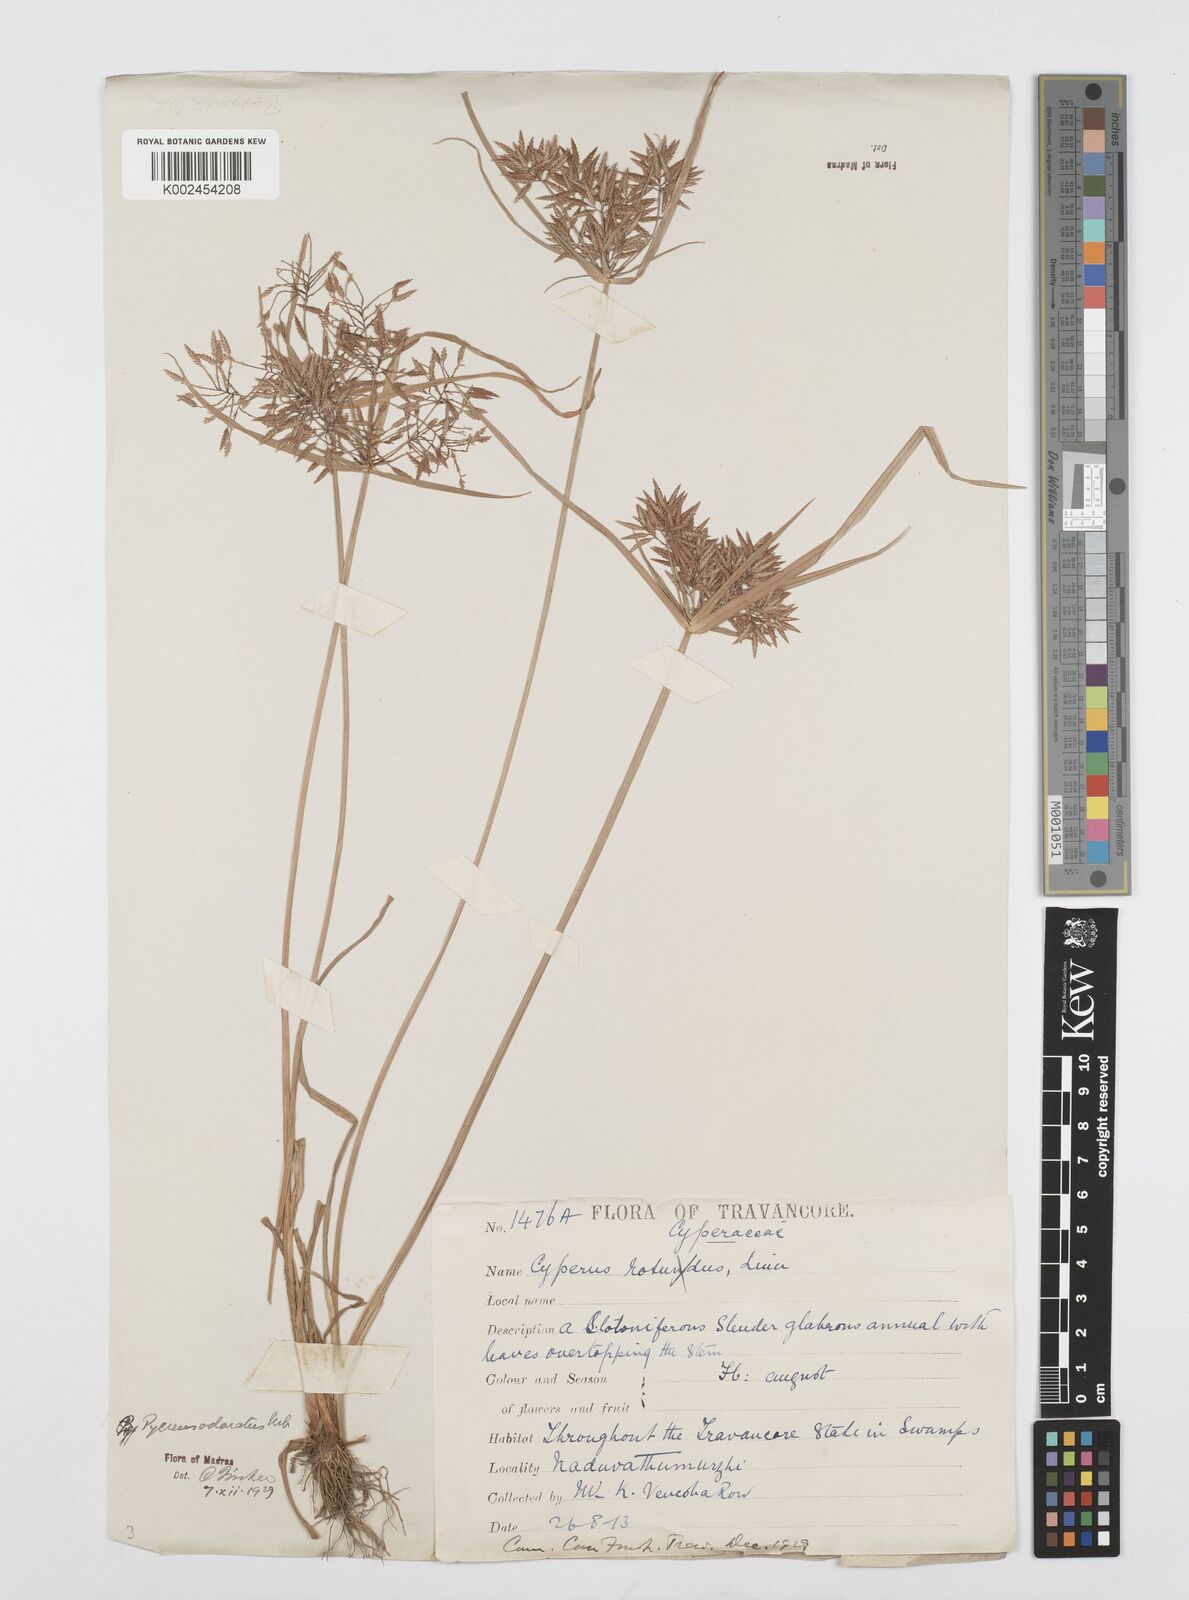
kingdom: Plantae
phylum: Tracheophyta
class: Liliopsida
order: Poales
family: Cyperaceae
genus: Cyperus
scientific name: Cyperus polystachyos
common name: Bunchy flat sedge
